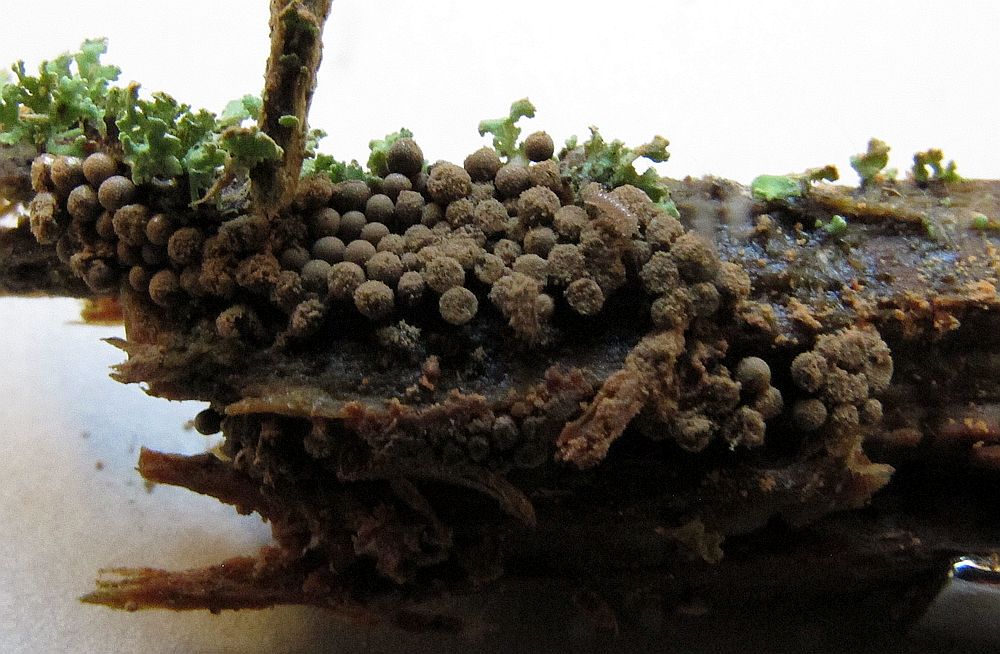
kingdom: Protozoa
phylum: Mycetozoa
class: Myxomycetes
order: Cribrariales
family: Cribrariaceae
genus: Cribraria
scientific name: Cribraria argillacea
